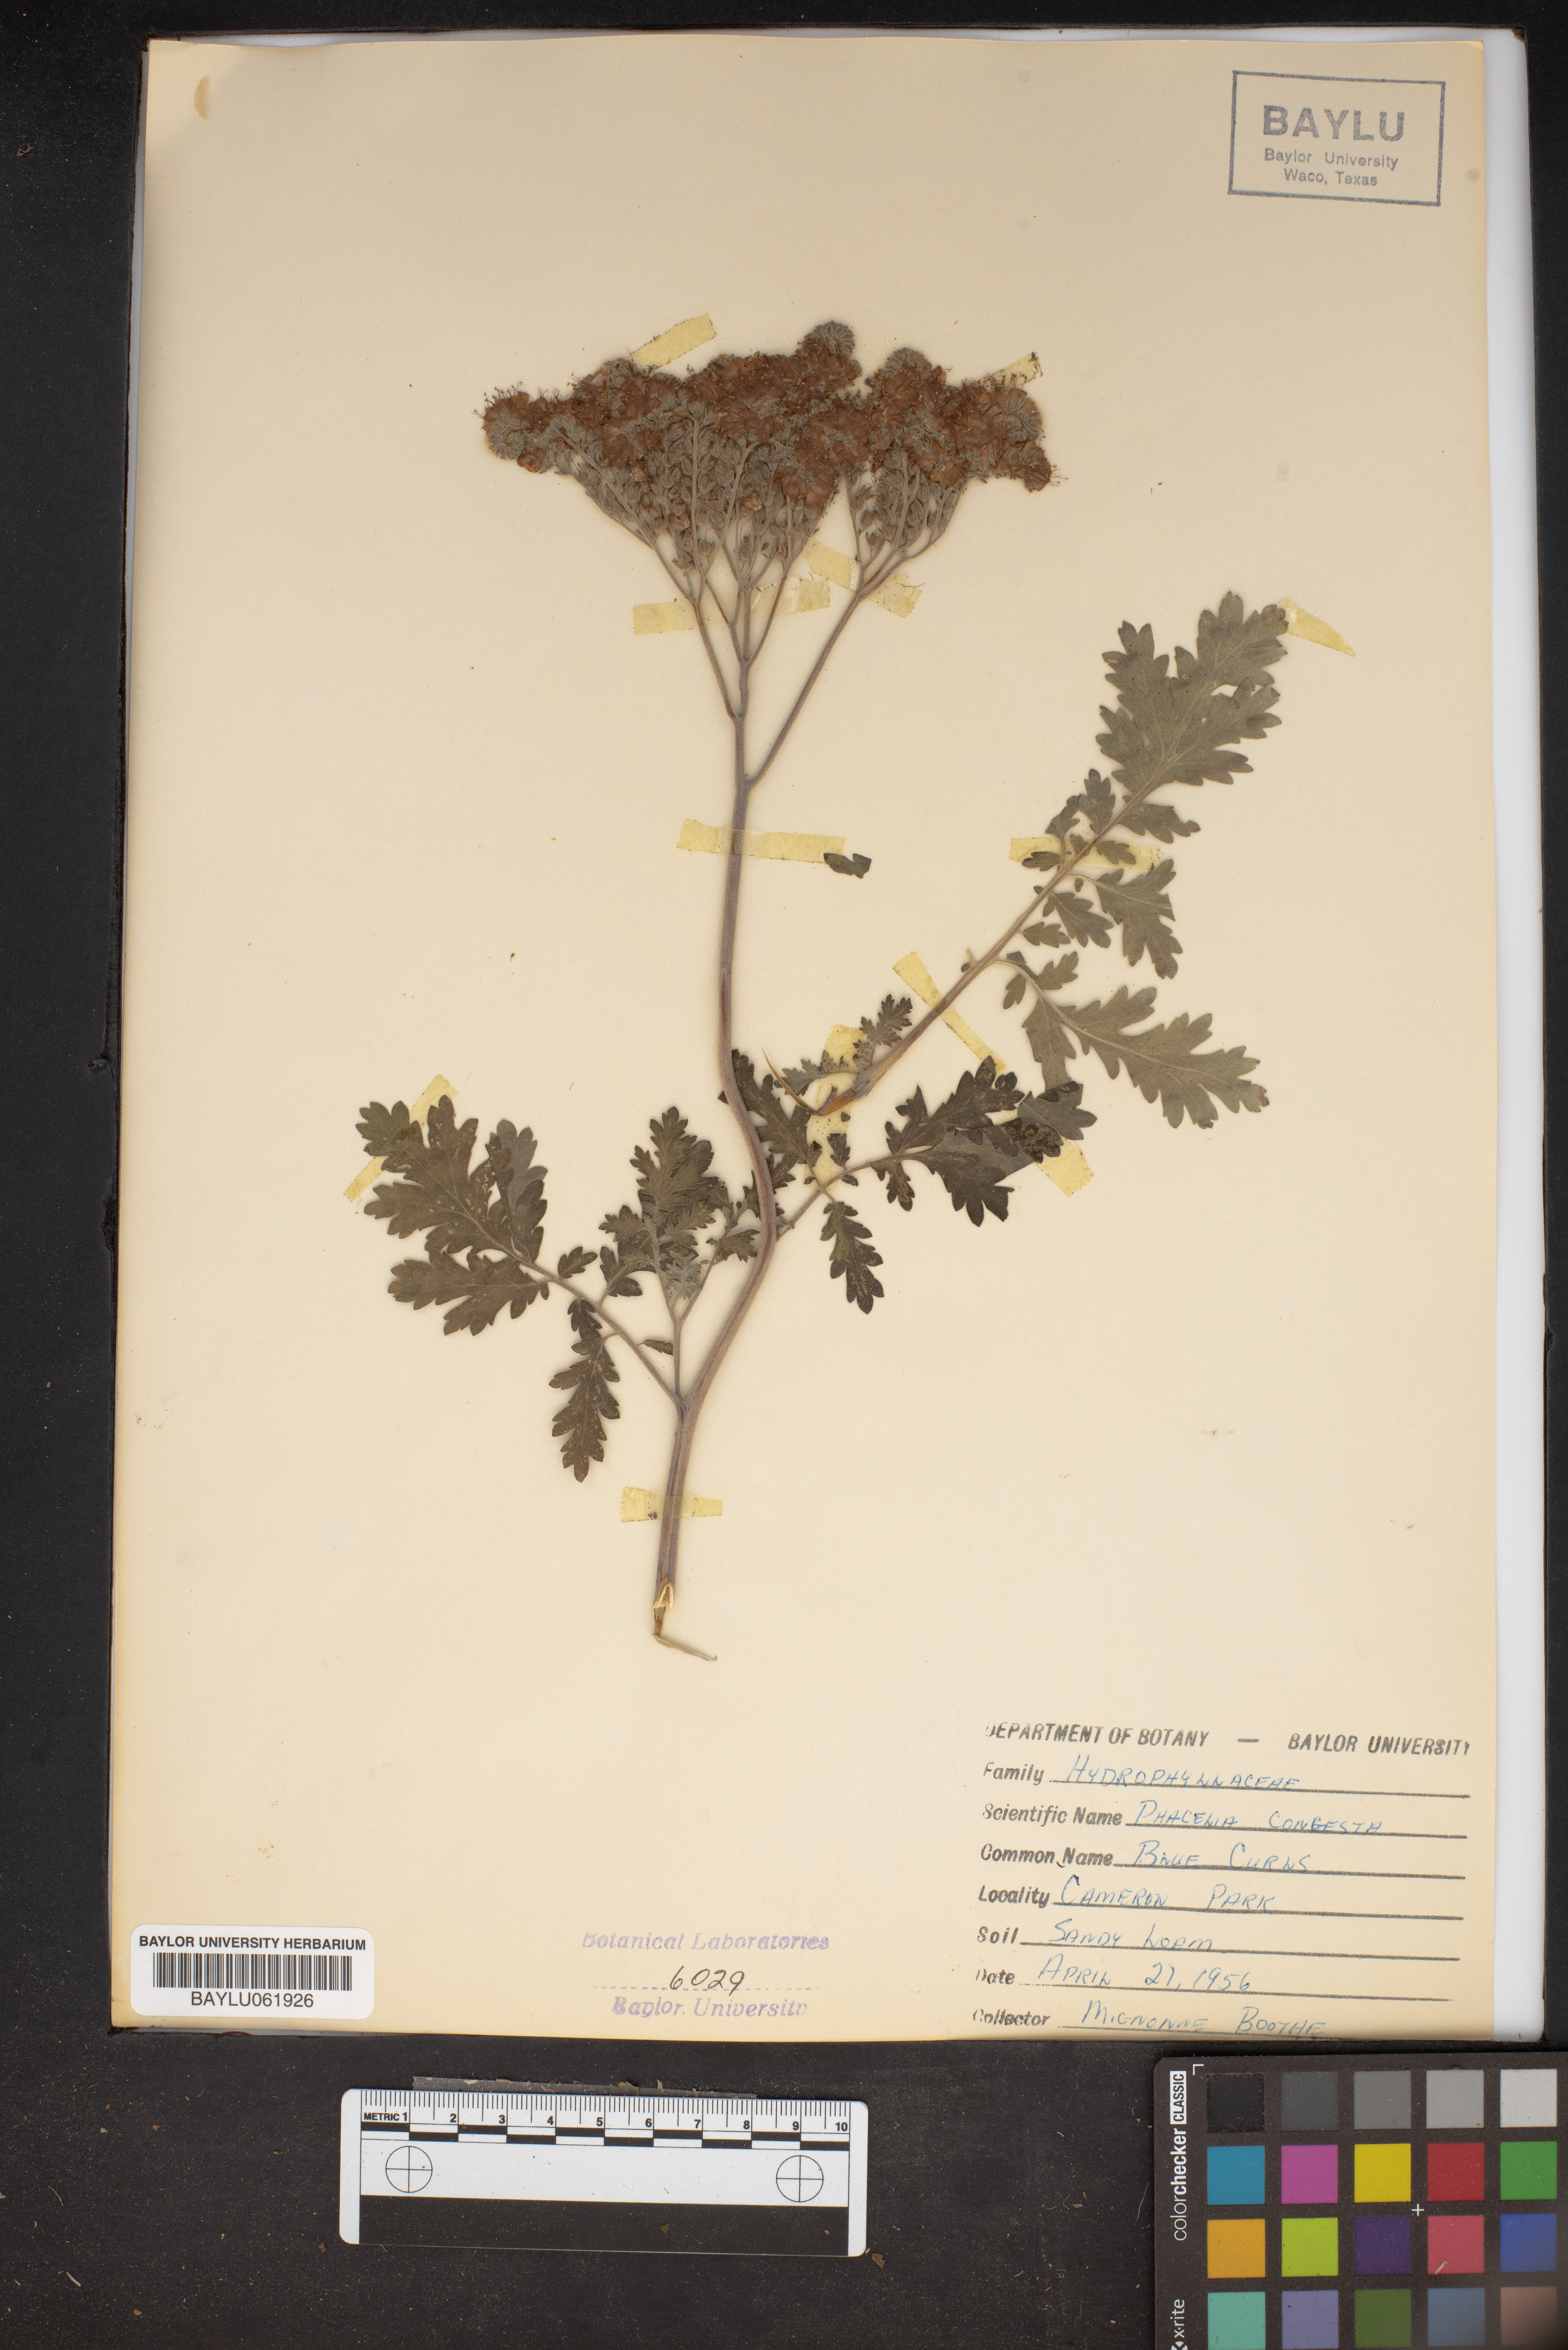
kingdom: Plantae
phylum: Tracheophyta
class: Magnoliopsida
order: Boraginales
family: Hydrophyllaceae
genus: Phacelia
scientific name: Phacelia congesta
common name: Blue curls
